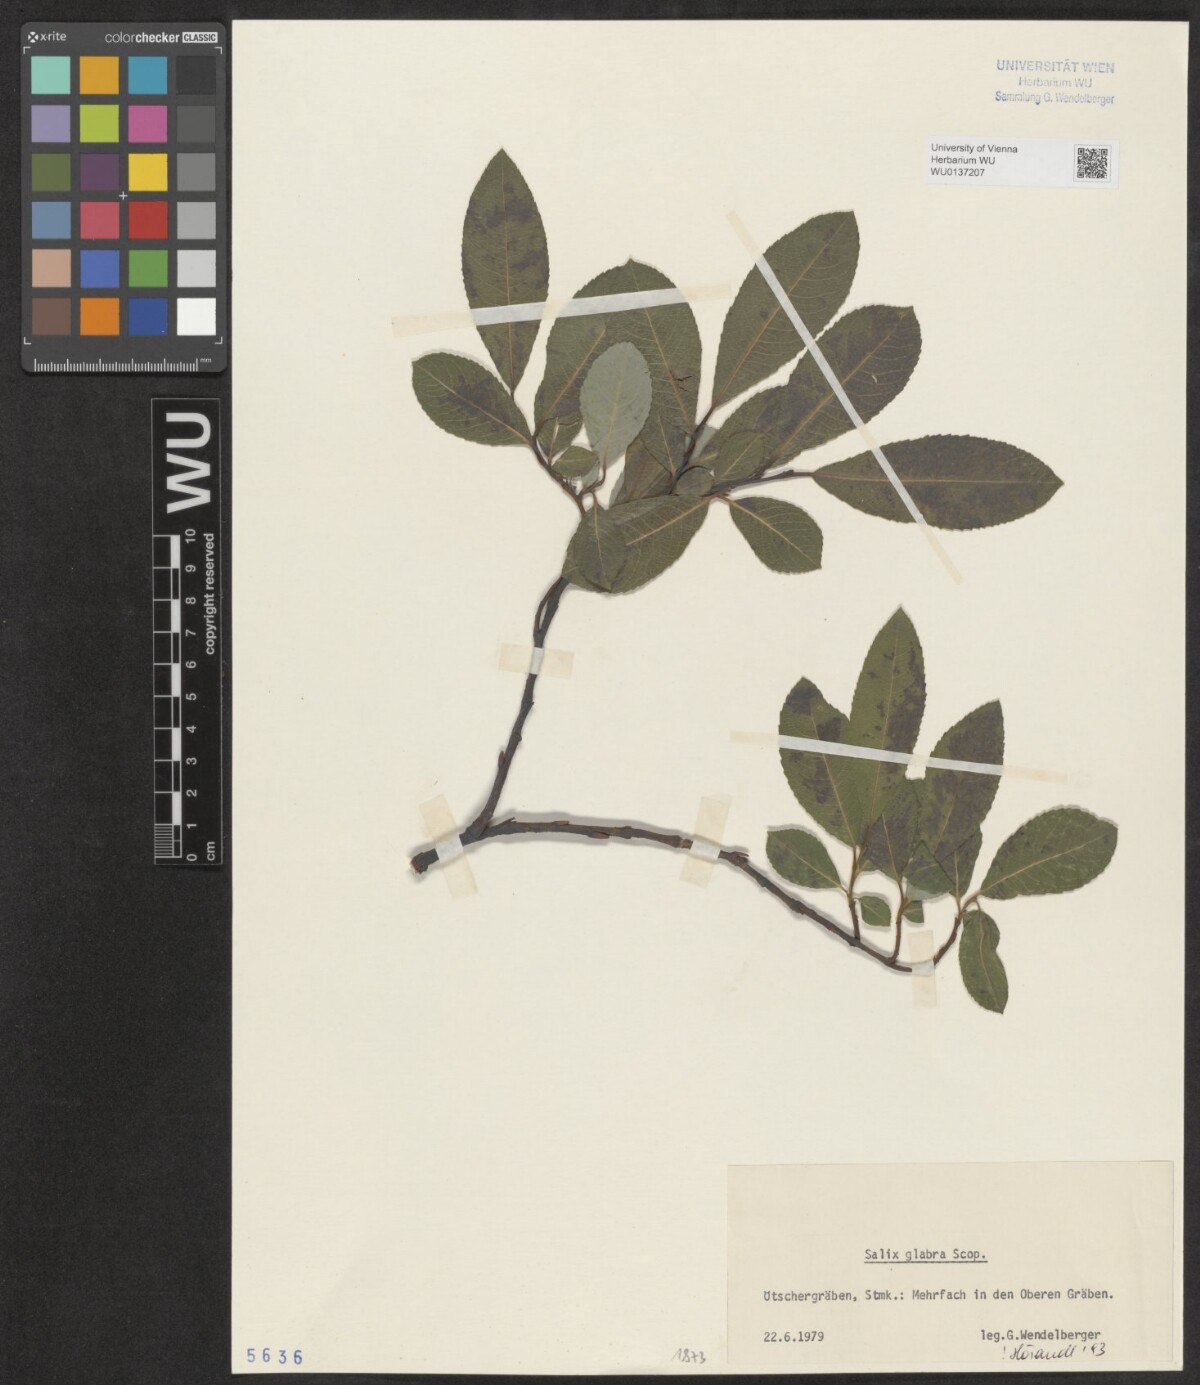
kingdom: Plantae
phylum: Tracheophyta
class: Magnoliopsida
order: Malpighiales
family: Salicaceae
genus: Salix
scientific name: Salix glabra
